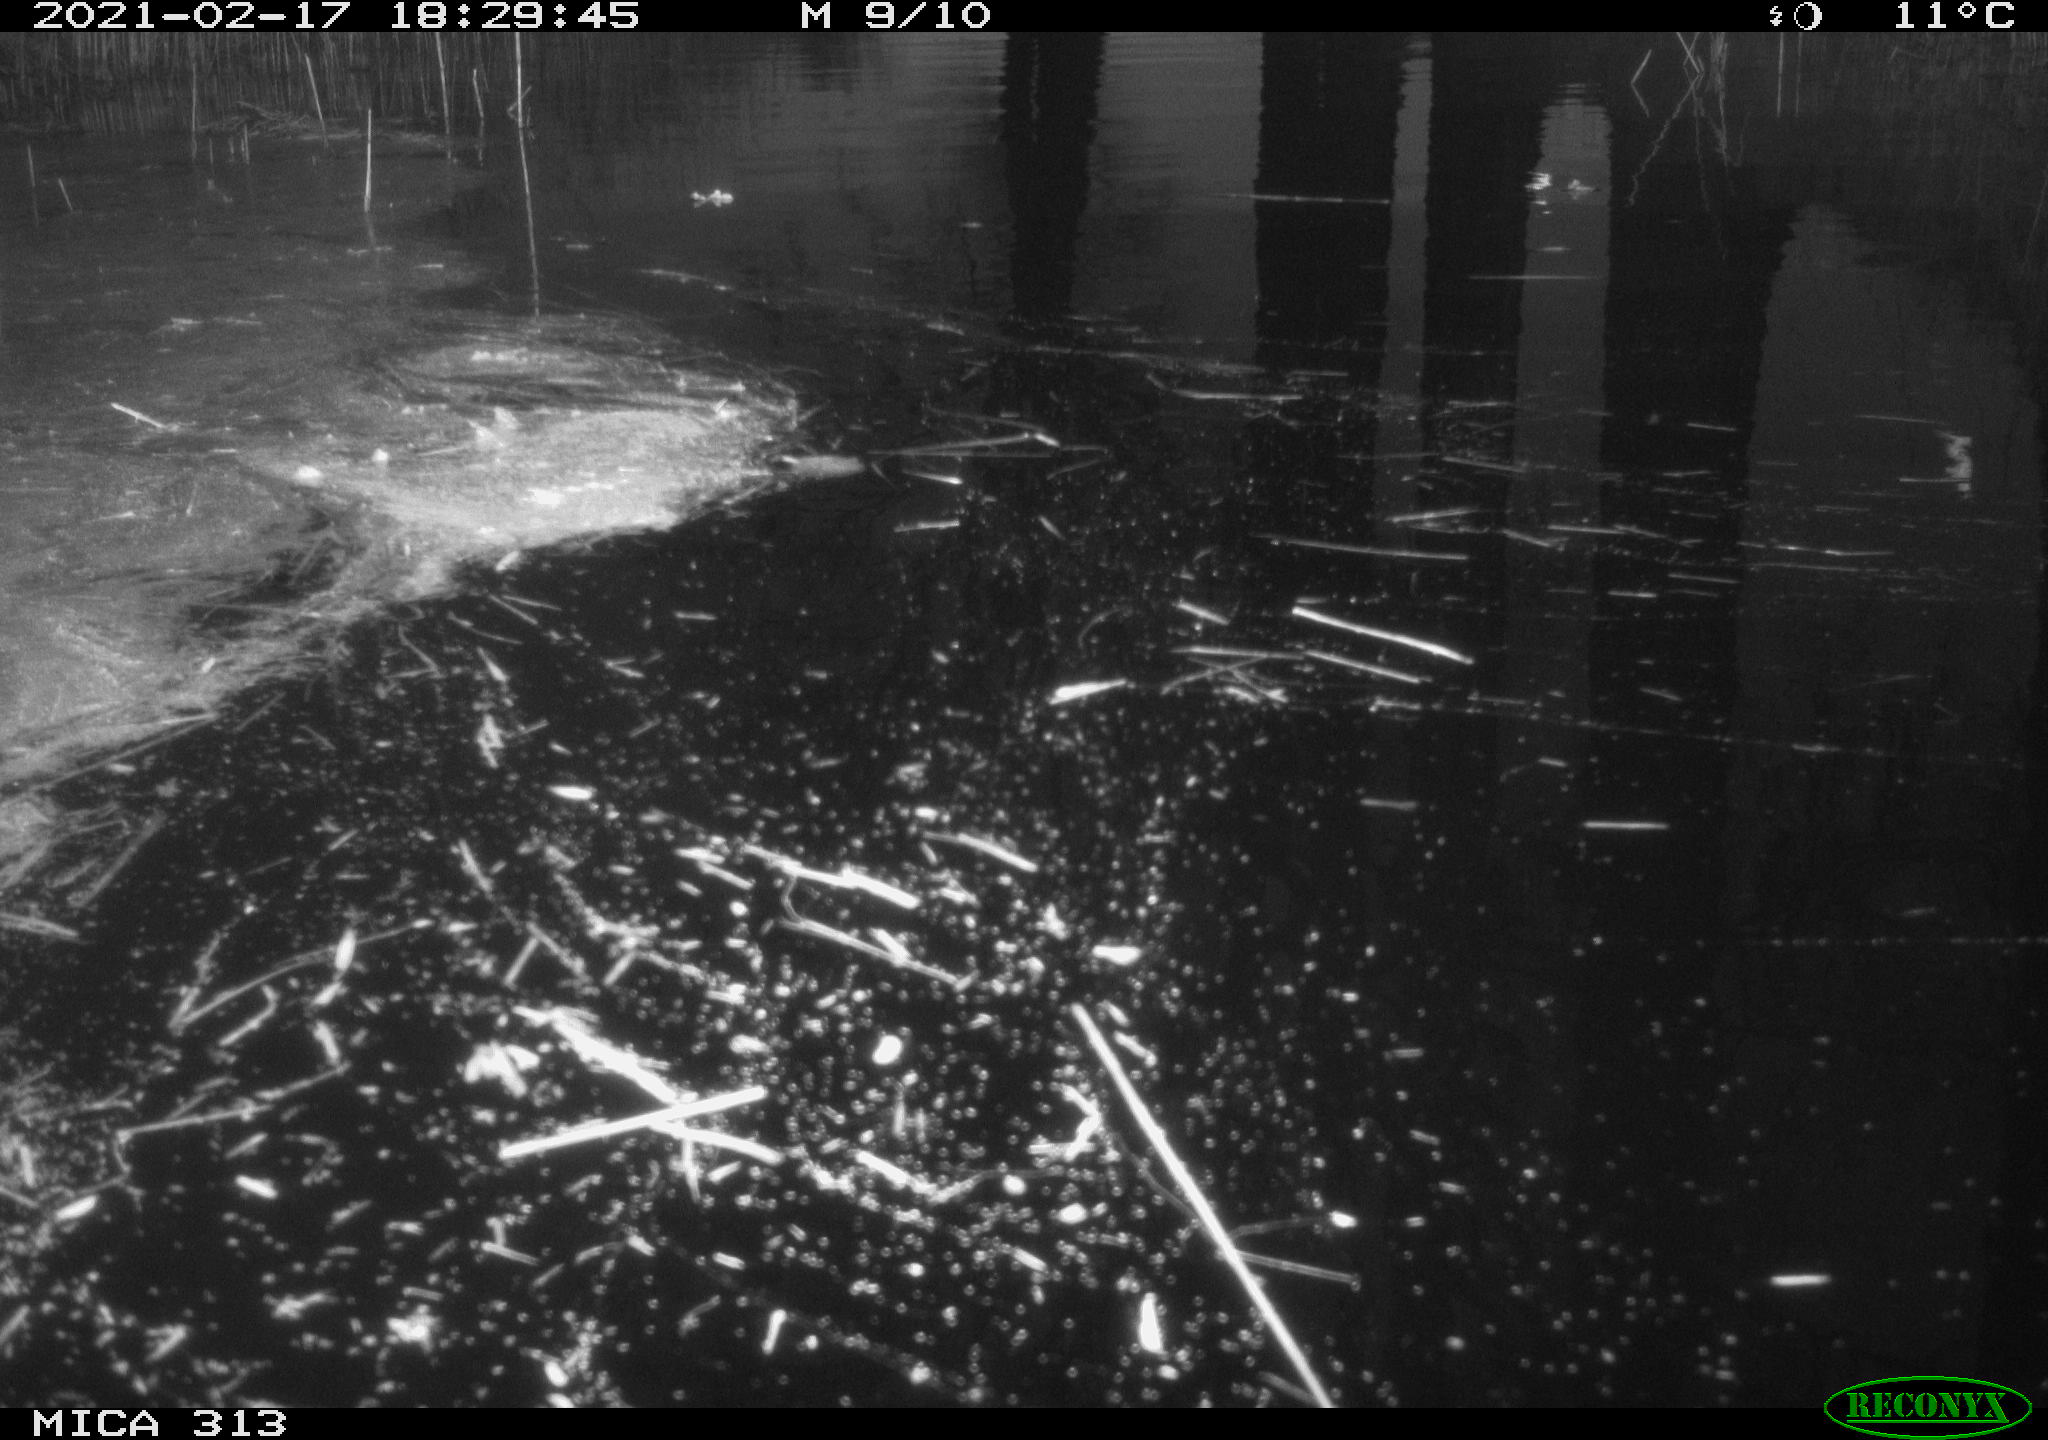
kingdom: Animalia
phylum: Chordata
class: Aves
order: Gruiformes
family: Rallidae
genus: Gallinula
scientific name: Gallinula chloropus
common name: Common moorhen
